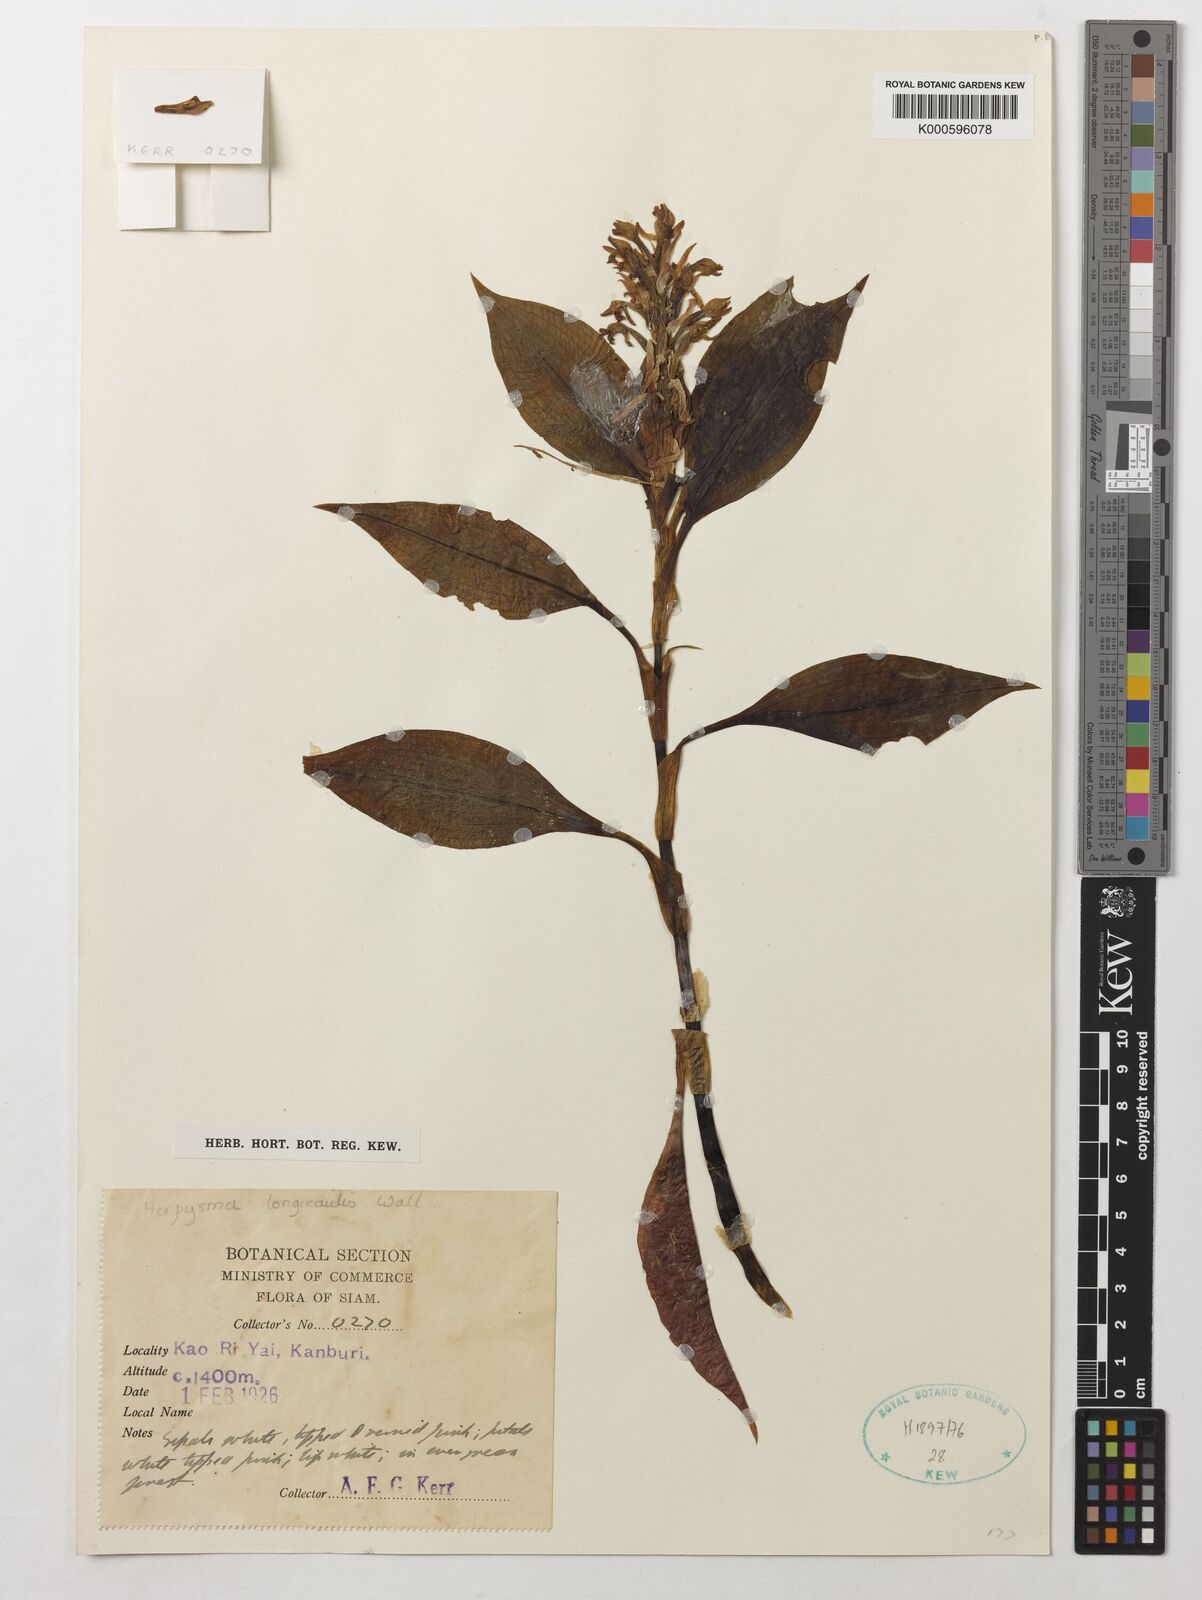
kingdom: Plantae
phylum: Tracheophyta
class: Liliopsida
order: Asparagales
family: Orchidaceae
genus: Herpysma
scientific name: Herpysma longicaulis
